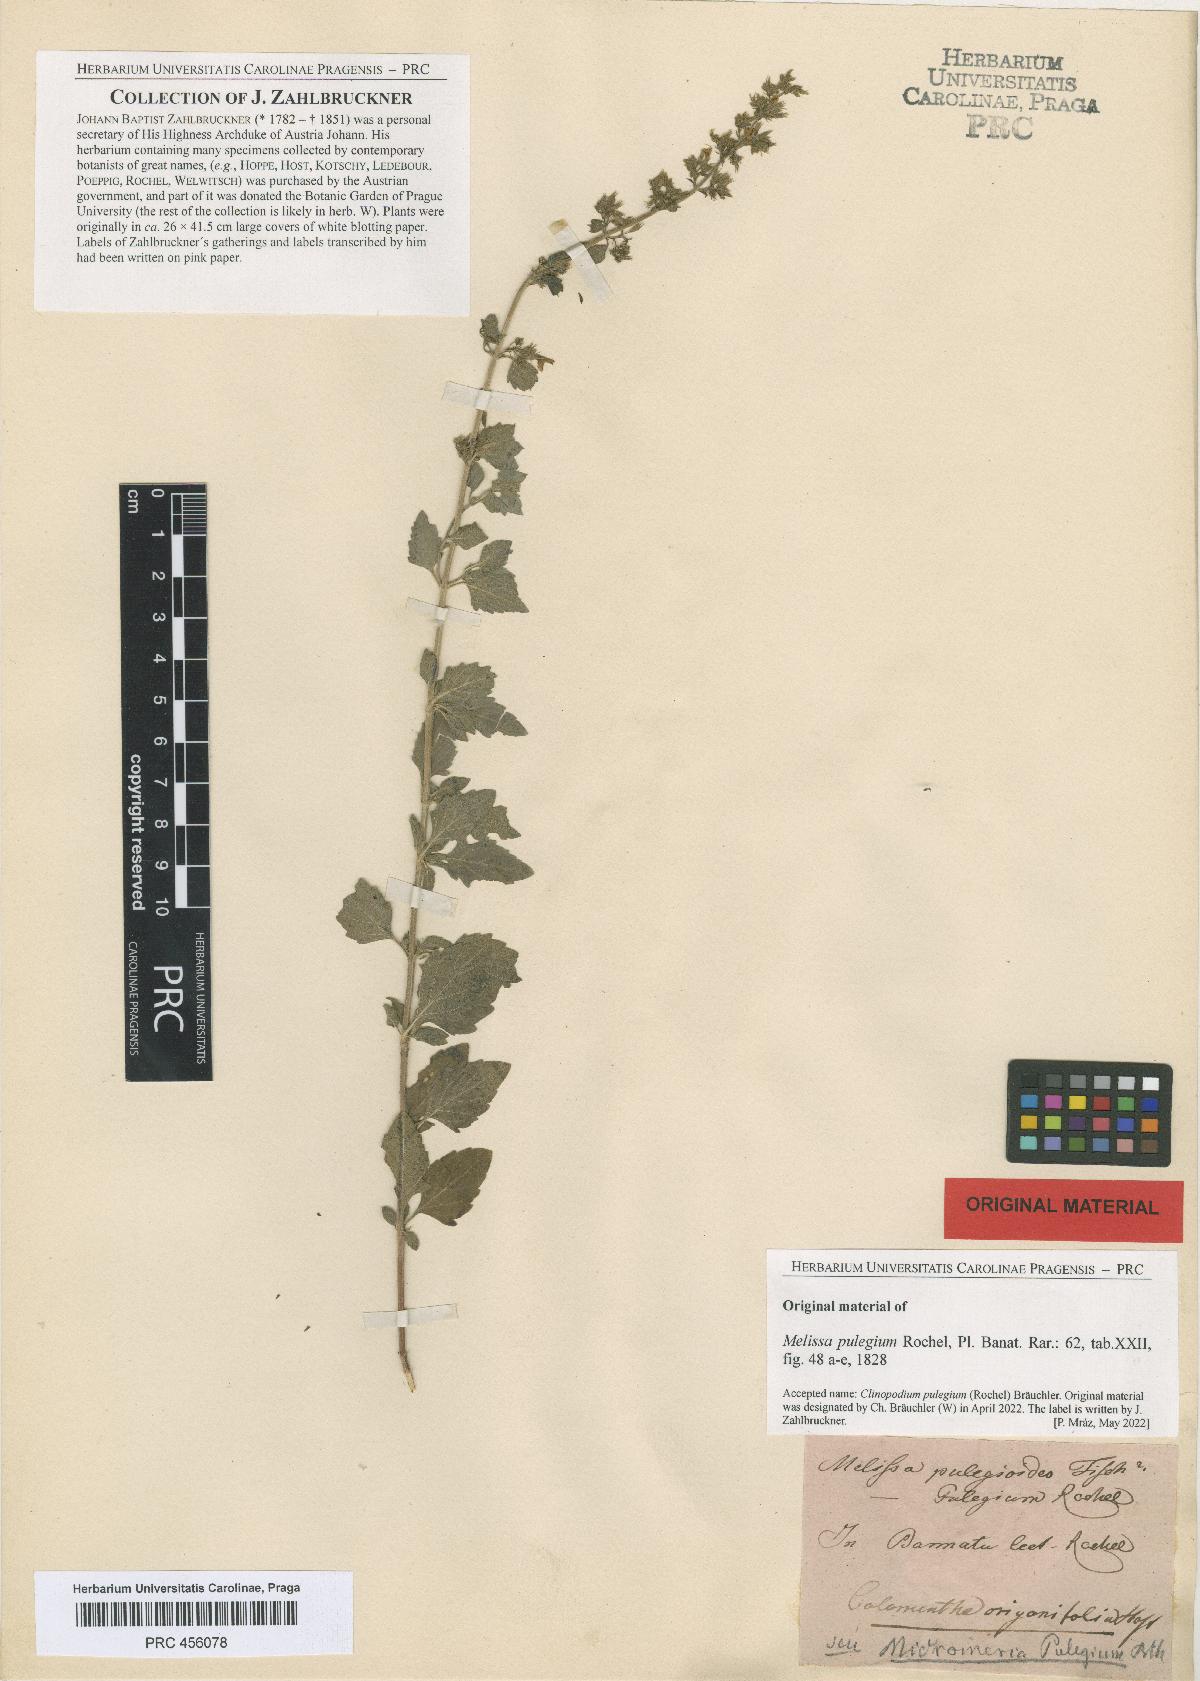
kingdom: Plantae
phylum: Tracheophyta
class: Magnoliopsida
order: Lamiales
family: Lamiaceae
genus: Clinopodium
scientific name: Clinopodium pulegium
